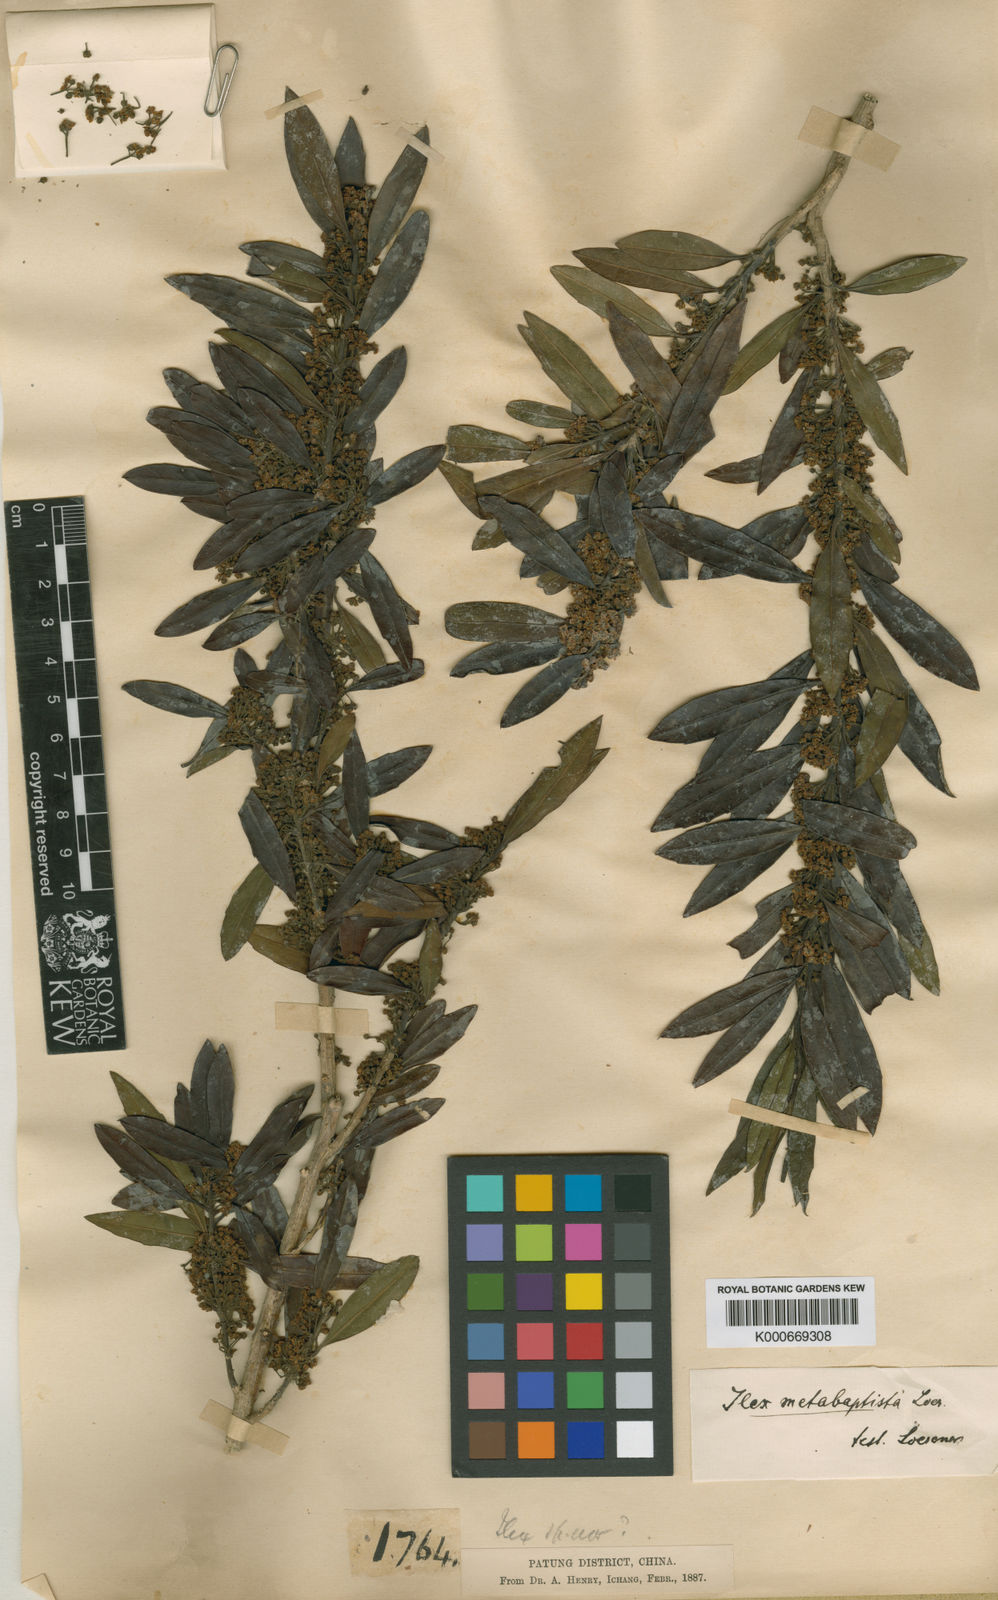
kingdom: Plantae
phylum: Tracheophyta
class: Magnoliopsida
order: Aquifoliales
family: Aquifoliaceae
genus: Ilex
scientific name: Ilex metabaptista
